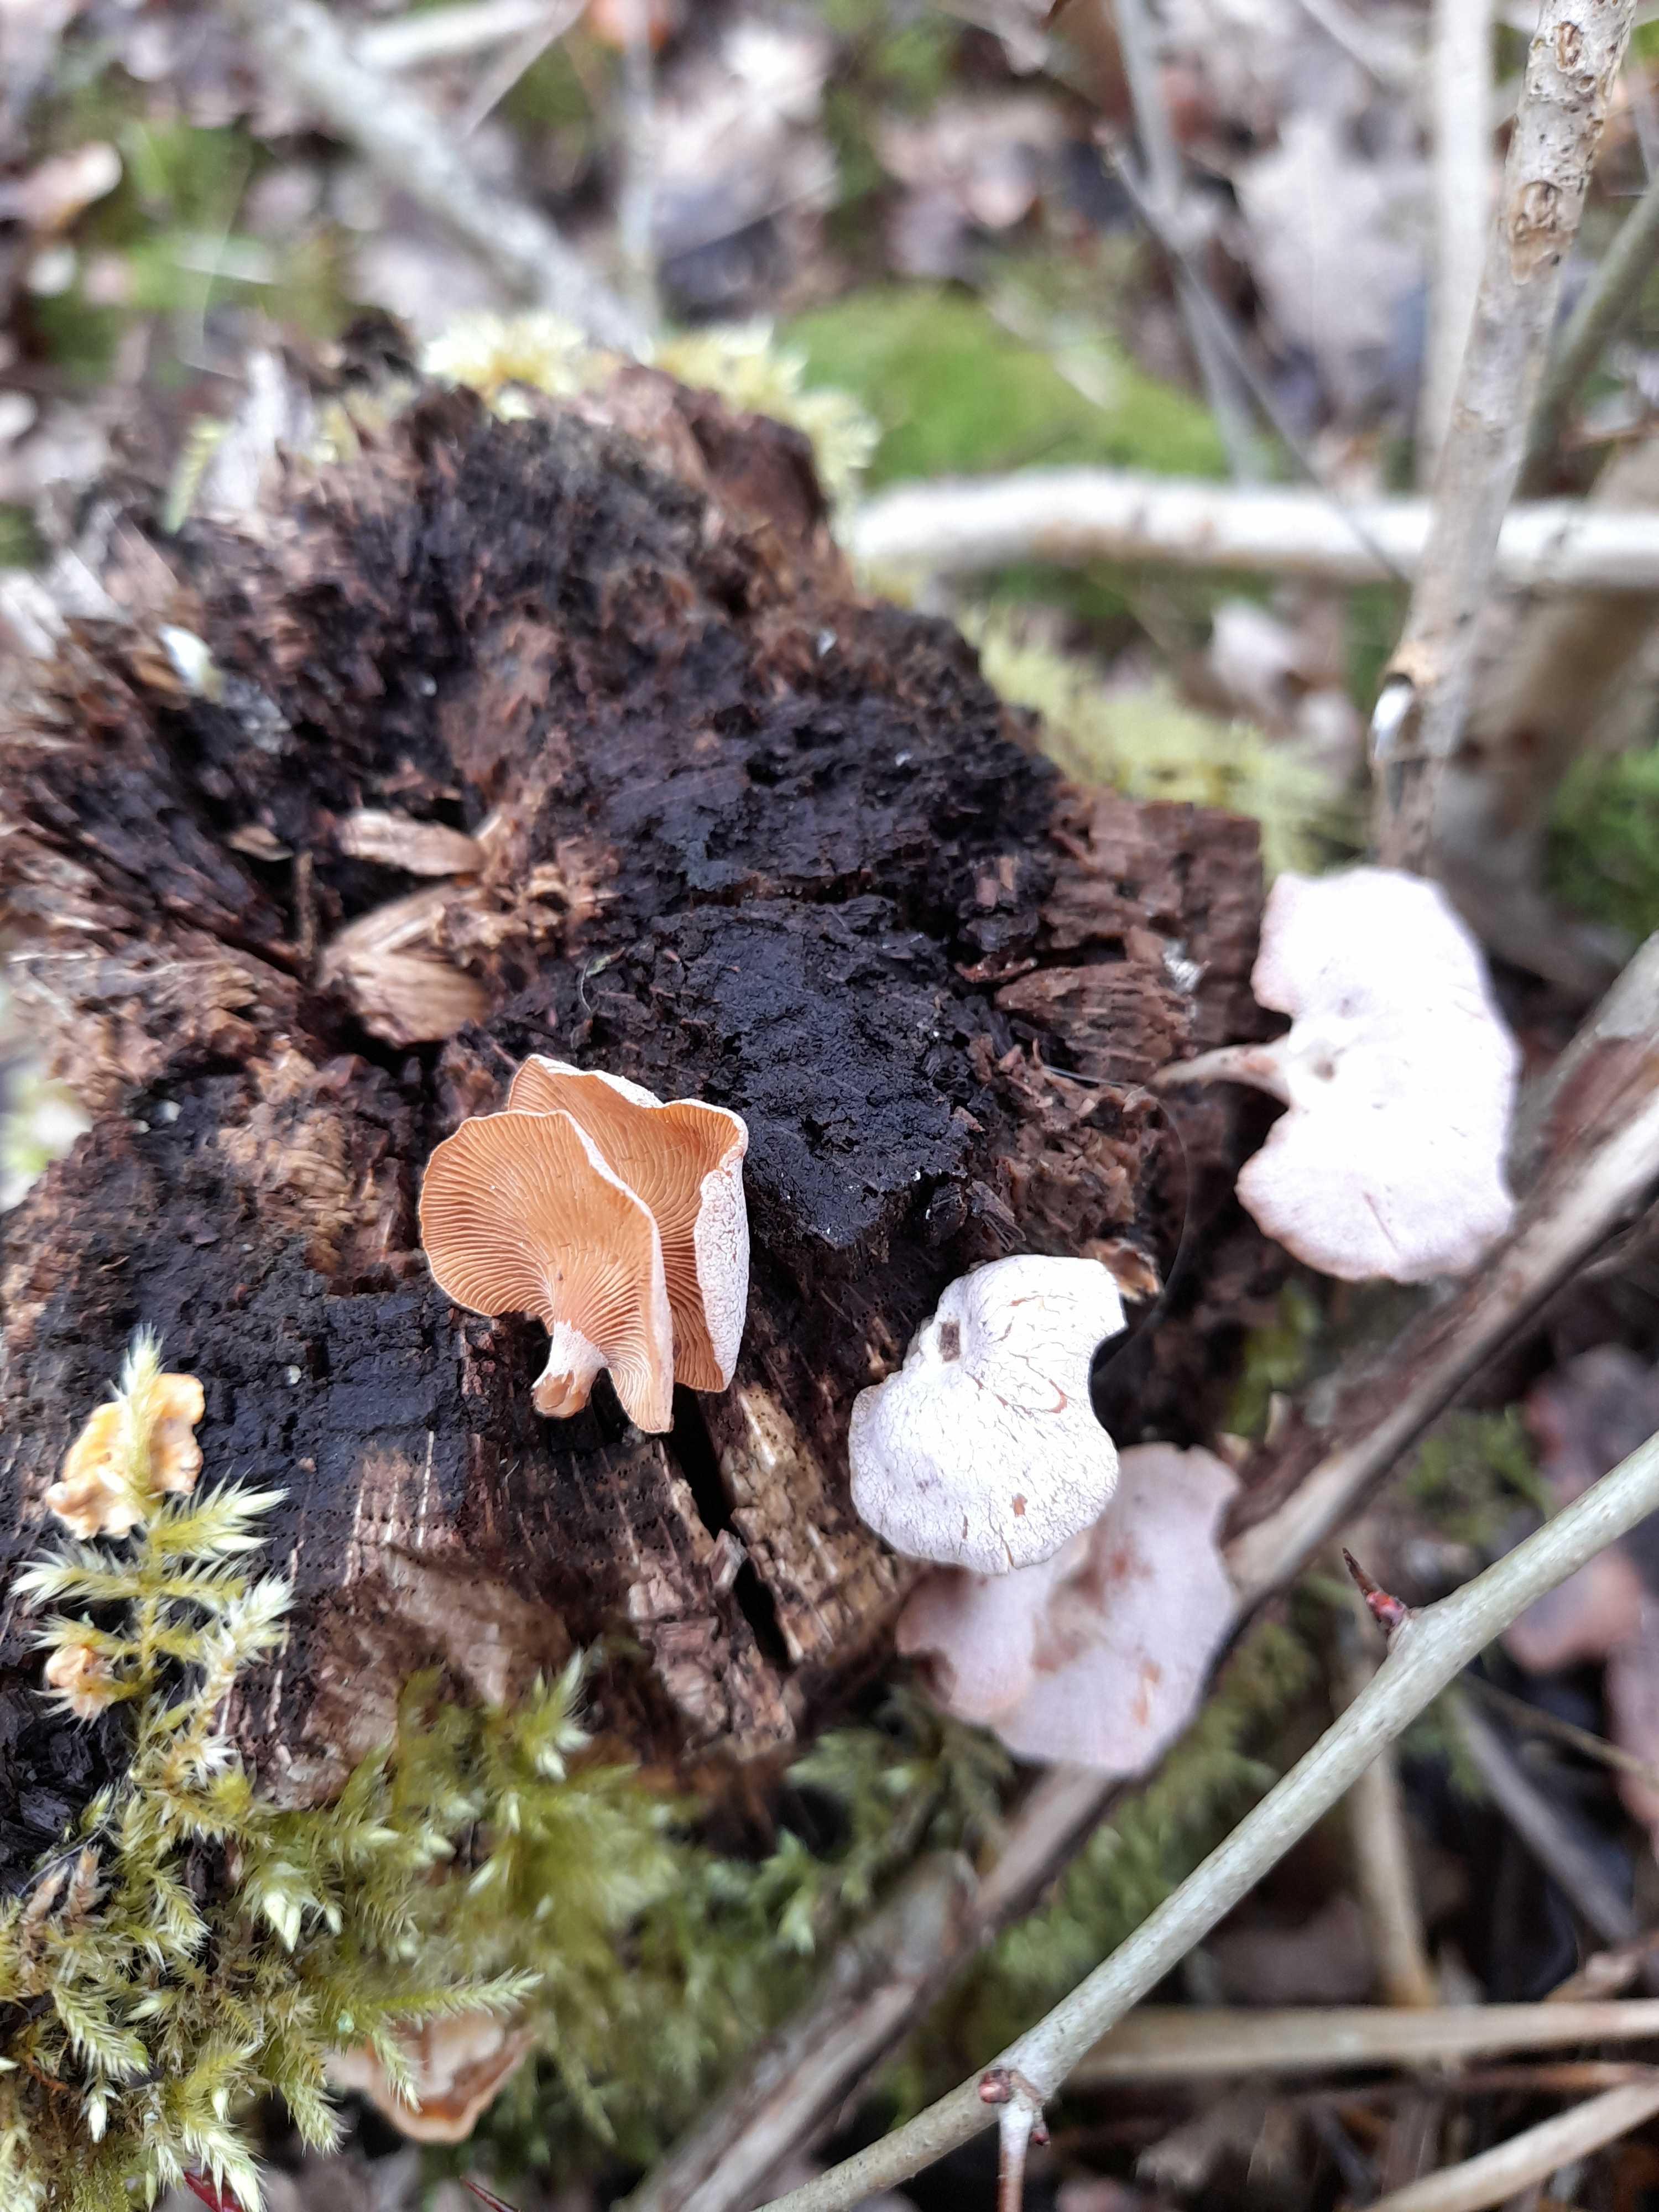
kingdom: Fungi
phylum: Basidiomycota
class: Agaricomycetes
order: Agaricales
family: Mycenaceae
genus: Panellus
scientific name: Panellus stipticus
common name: kliddet epaulethat
